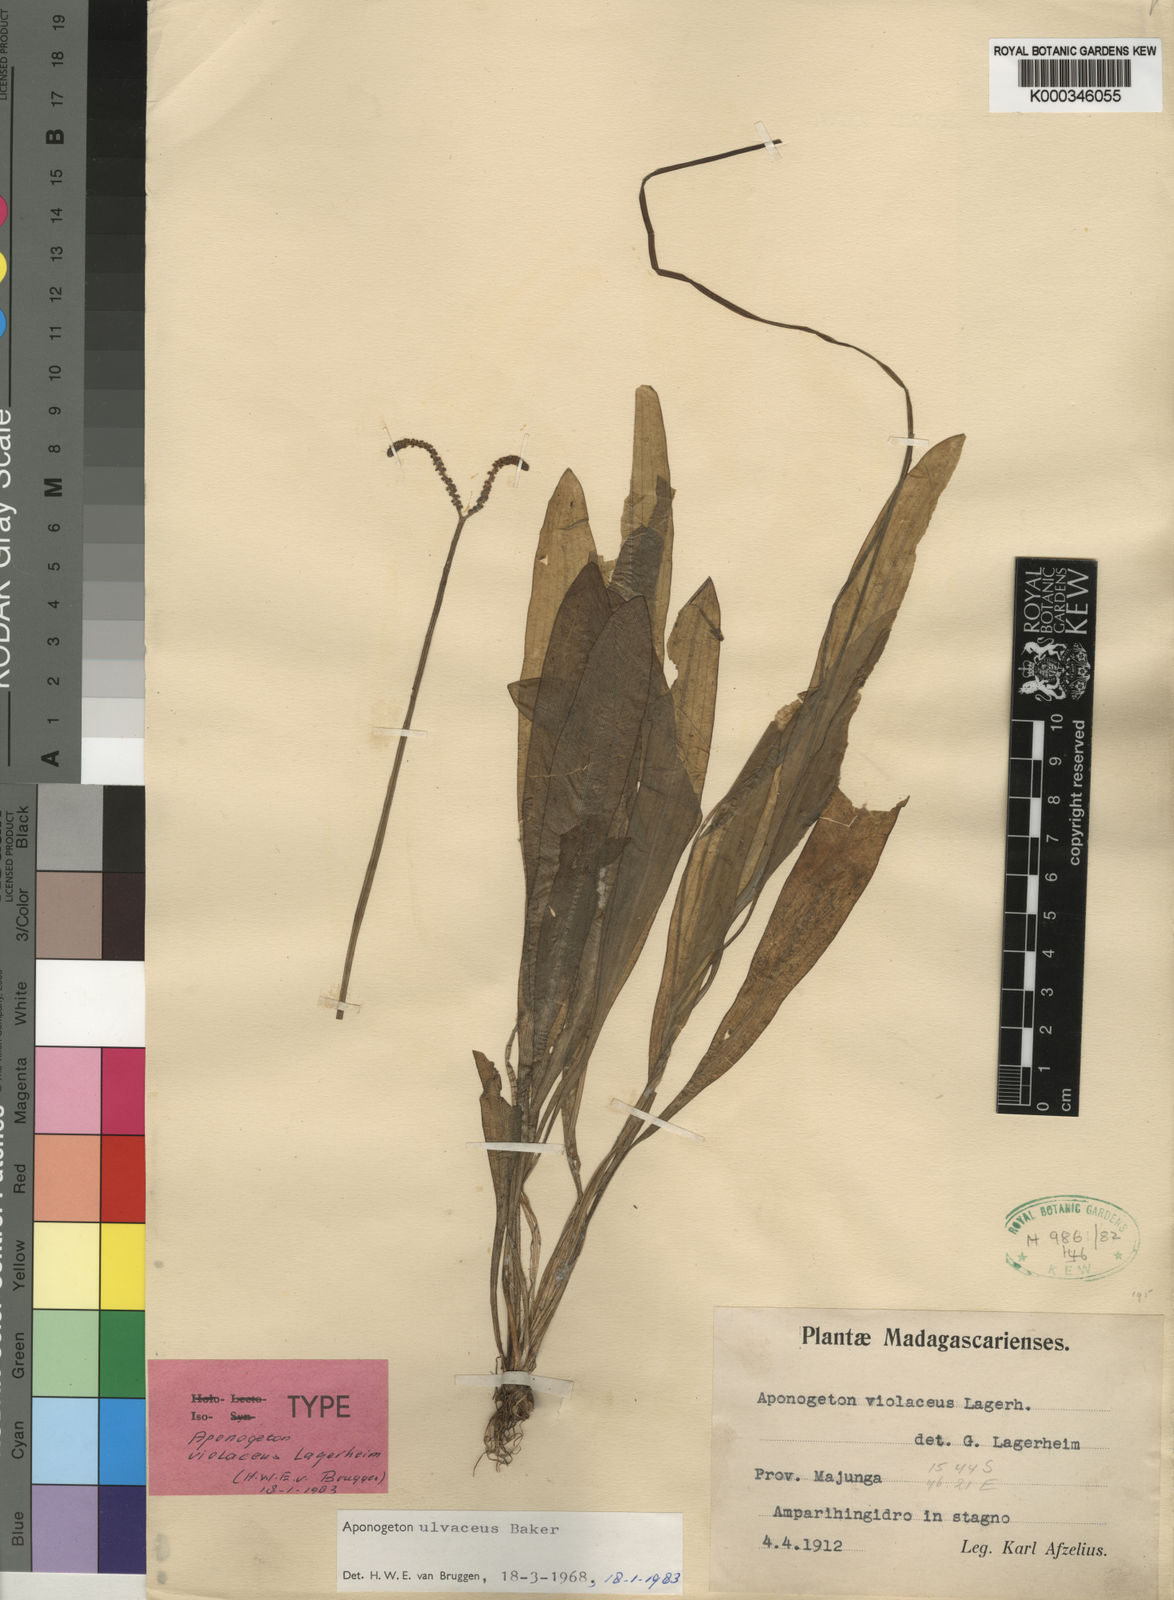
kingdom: Plantae
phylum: Tracheophyta
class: Liliopsida
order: Alismatales
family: Aponogetonaceae
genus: Aponogeton
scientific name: Aponogeton ulvaceus
